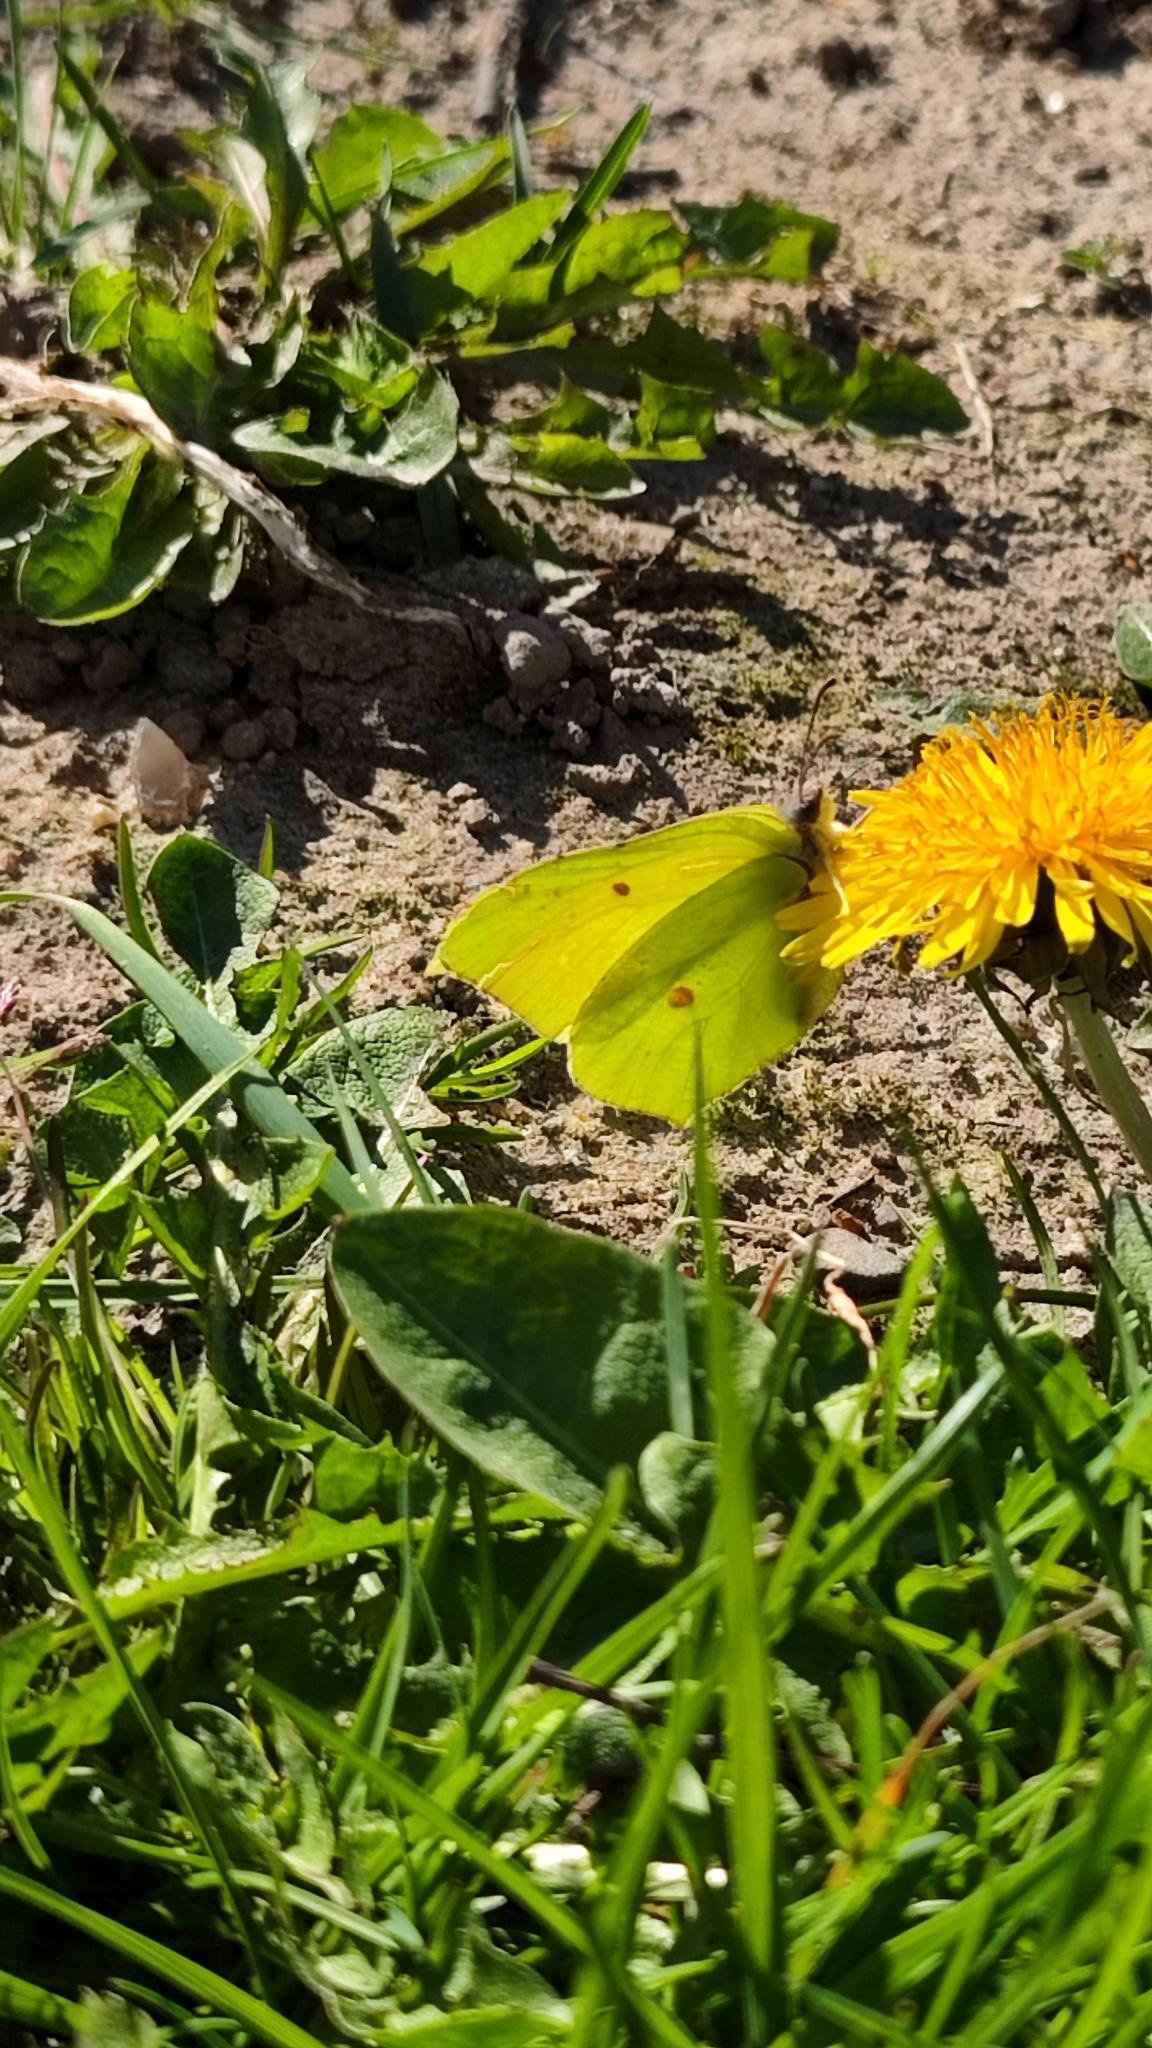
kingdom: Animalia
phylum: Arthropoda
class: Insecta
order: Lepidoptera
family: Pieridae
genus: Gonepteryx
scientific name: Gonepteryx rhamni
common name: Citronsommerfugl
